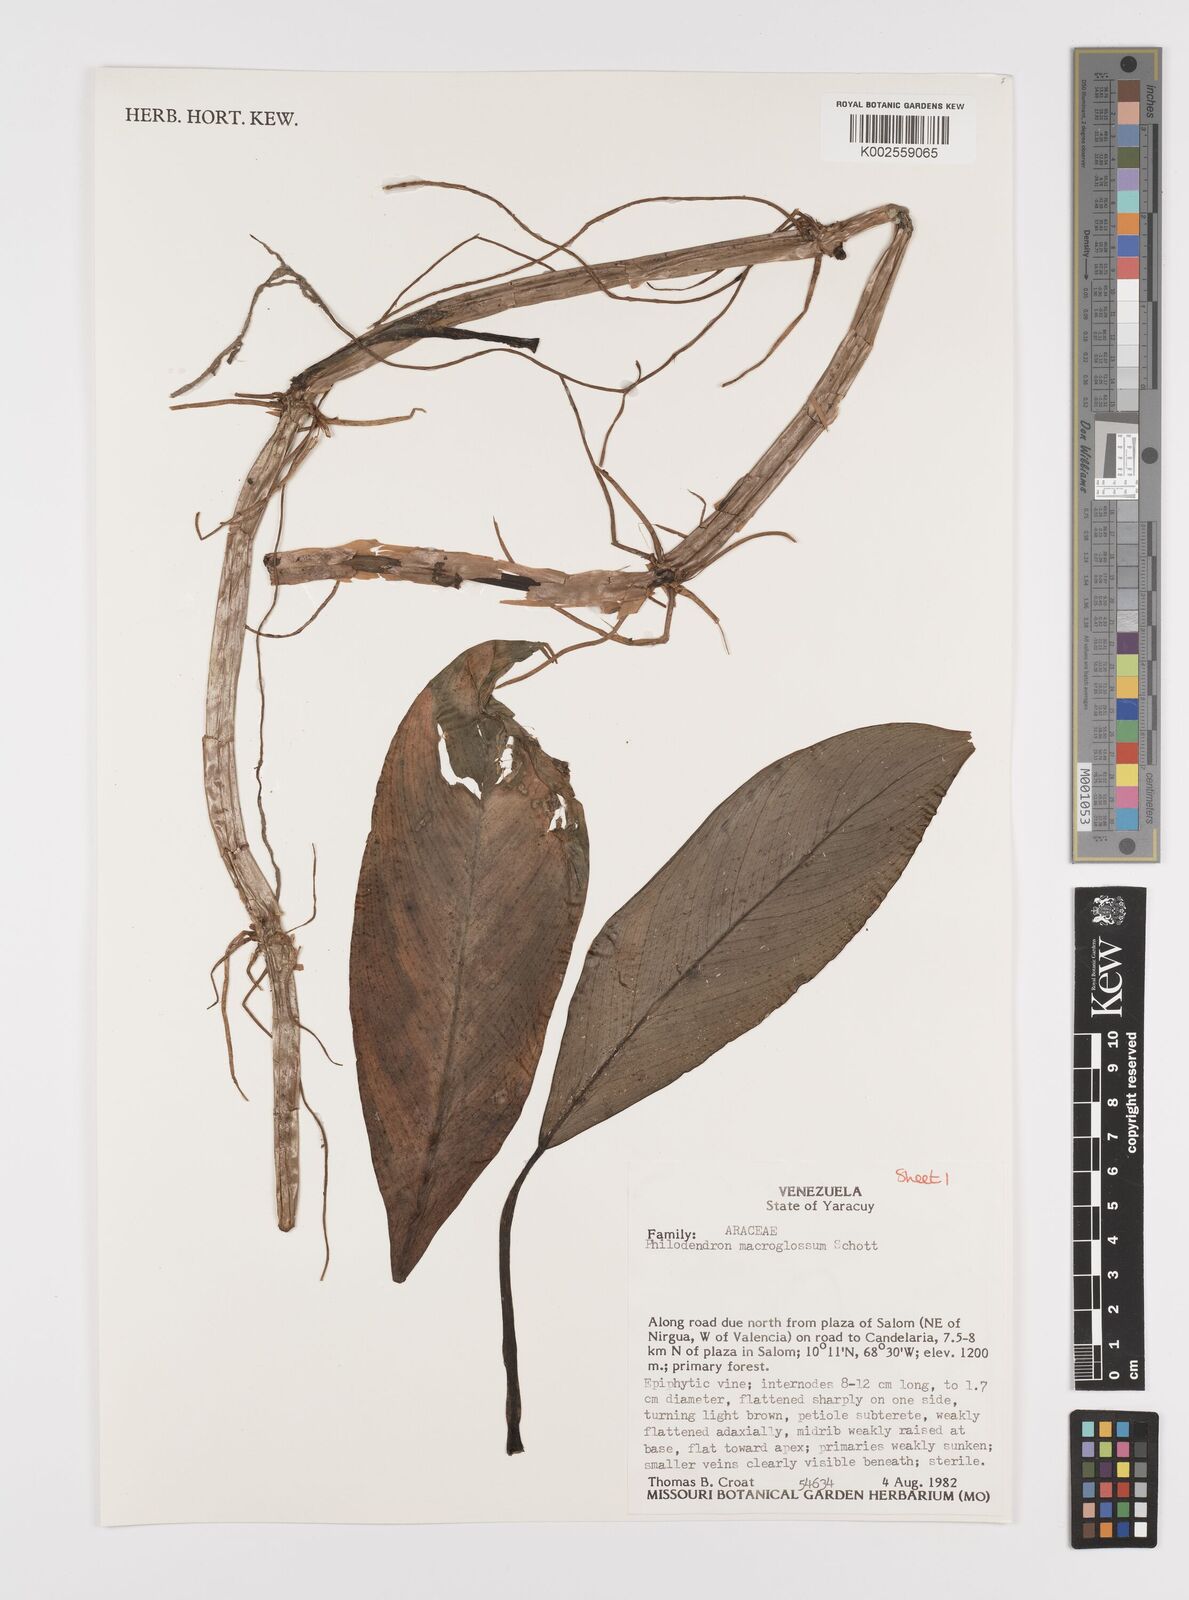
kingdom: Plantae
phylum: Tracheophyta
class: Liliopsida
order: Alismatales
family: Araceae
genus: Philodendron
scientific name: Philodendron macroglossum
